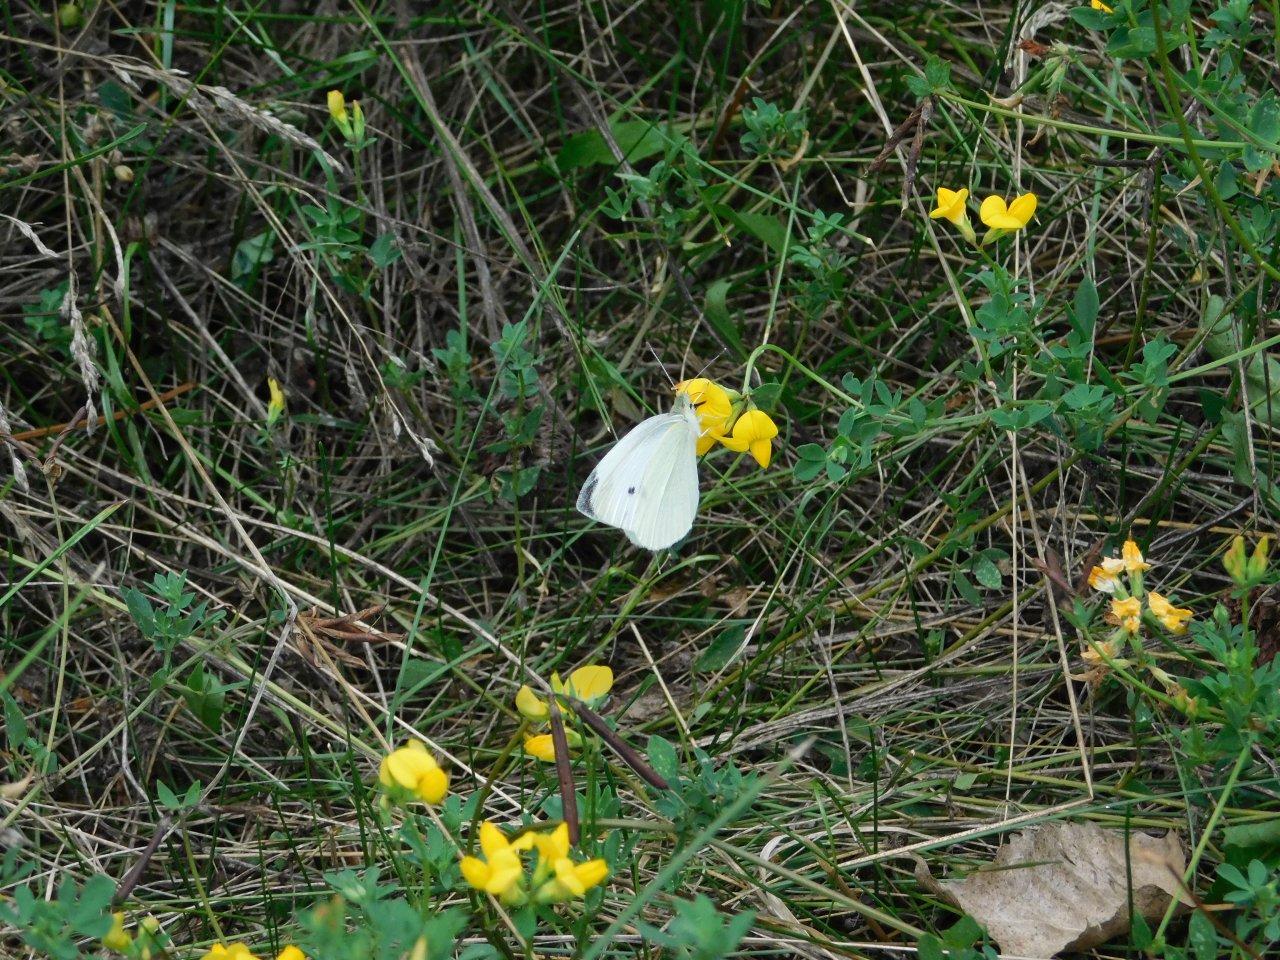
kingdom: Animalia
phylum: Arthropoda
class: Insecta
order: Lepidoptera
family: Pieridae
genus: Pieris
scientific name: Pieris rapae
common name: Cabbage White
